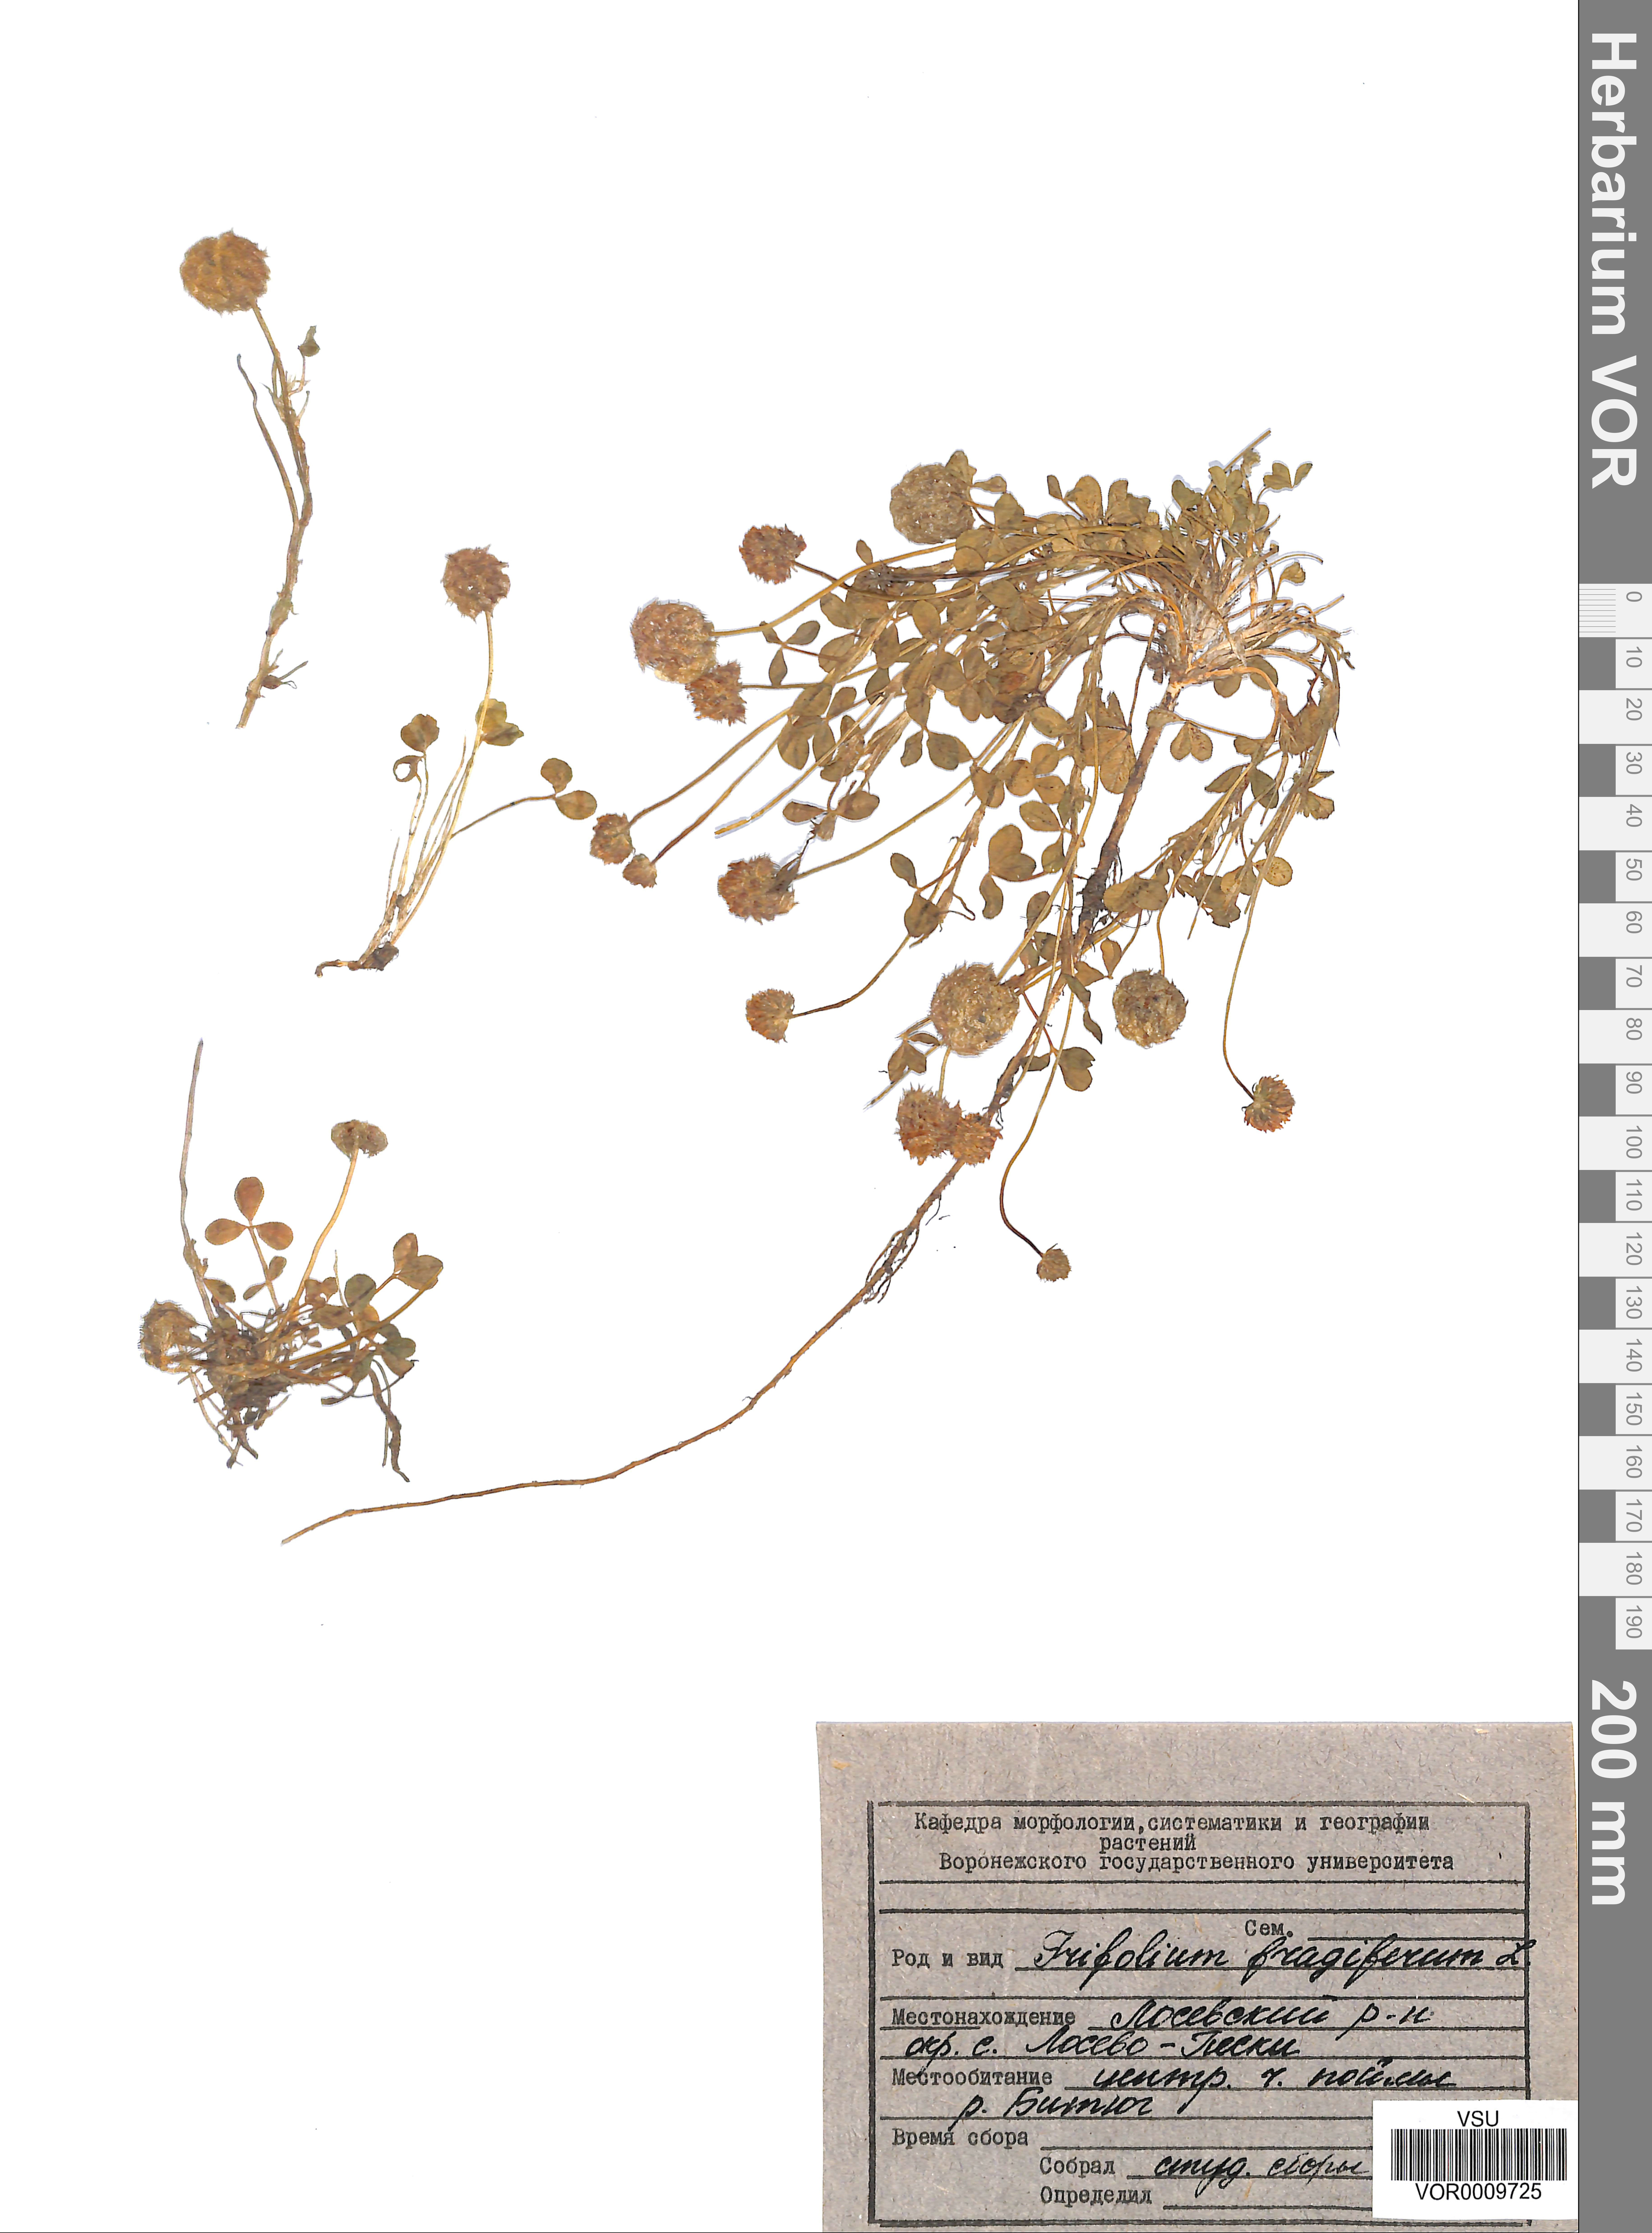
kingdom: Plantae
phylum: Tracheophyta
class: Magnoliopsida
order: Fabales
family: Fabaceae
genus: Trifolium
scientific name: Trifolium fragiferum
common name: Strawberry clover
